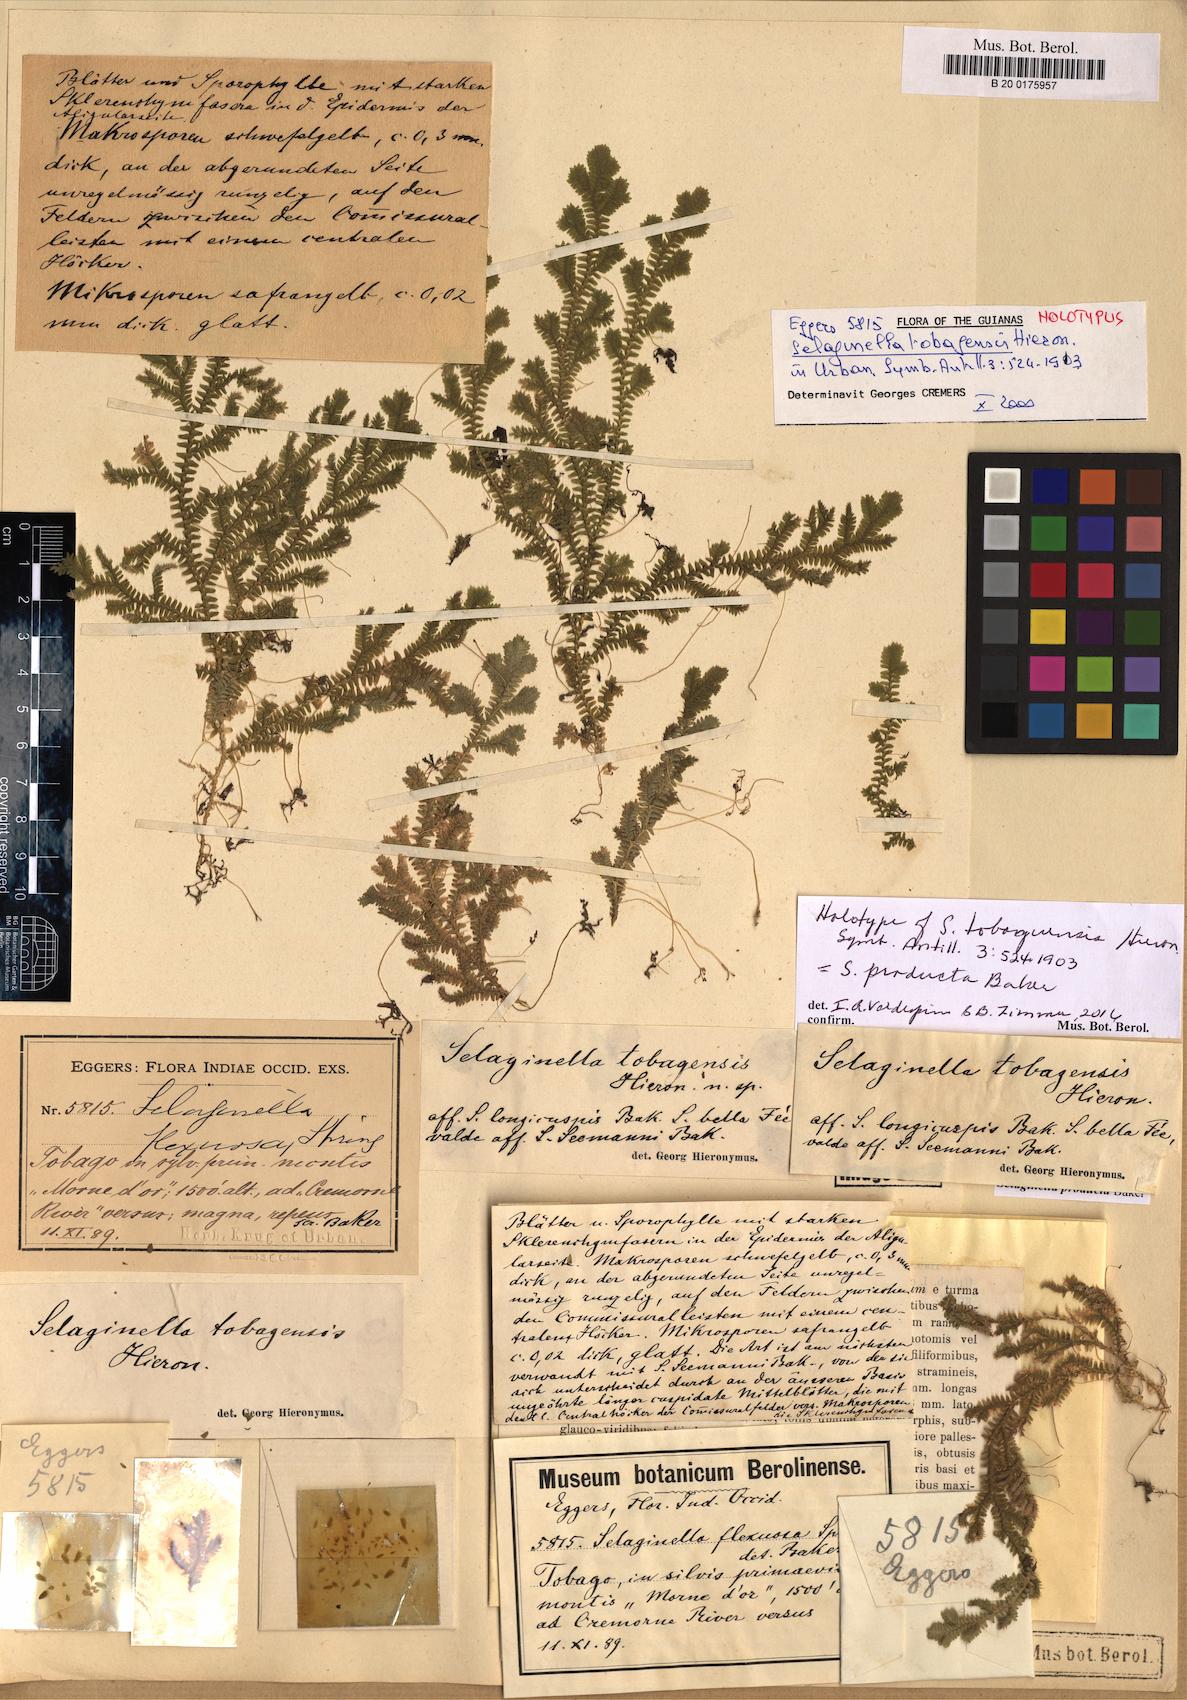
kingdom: Plantae
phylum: Tracheophyta
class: Lycopodiopsida
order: Selaginellales
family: Selaginellaceae
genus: Selaginella
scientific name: Selaginella producta
